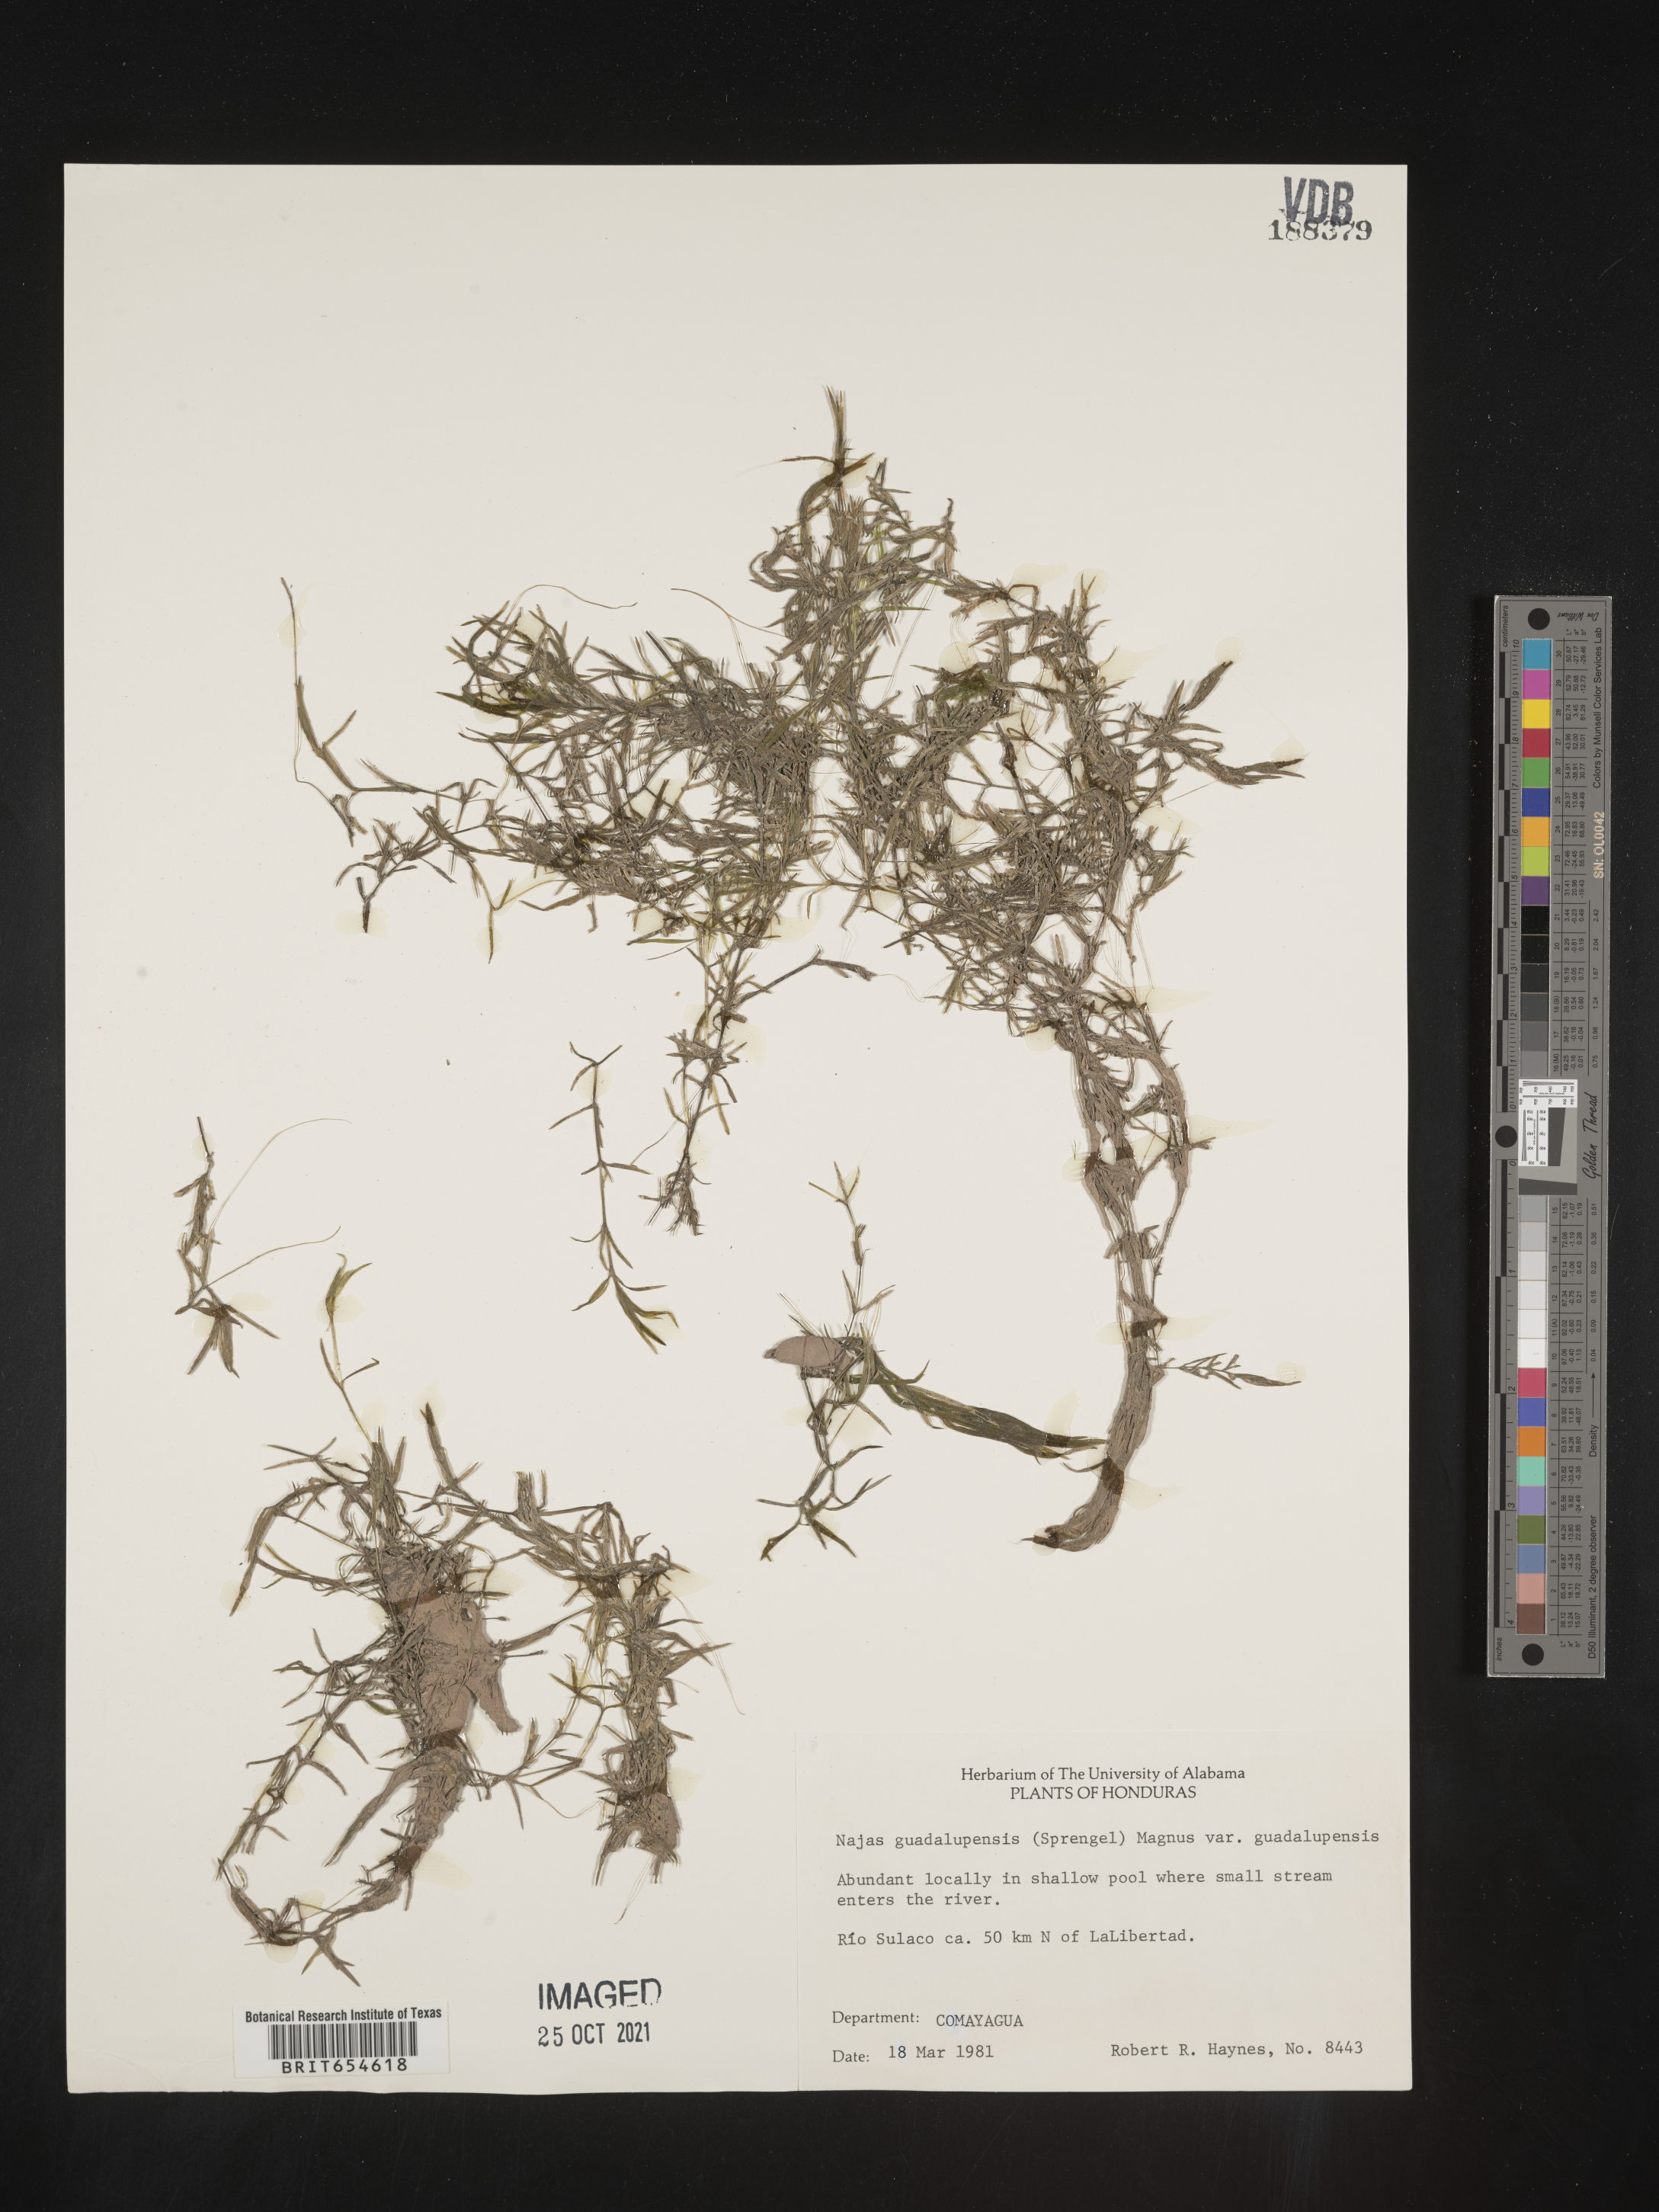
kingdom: Plantae
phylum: Tracheophyta
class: Liliopsida
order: Alismatales
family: Hydrocharitaceae
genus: Najas
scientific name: Najas
